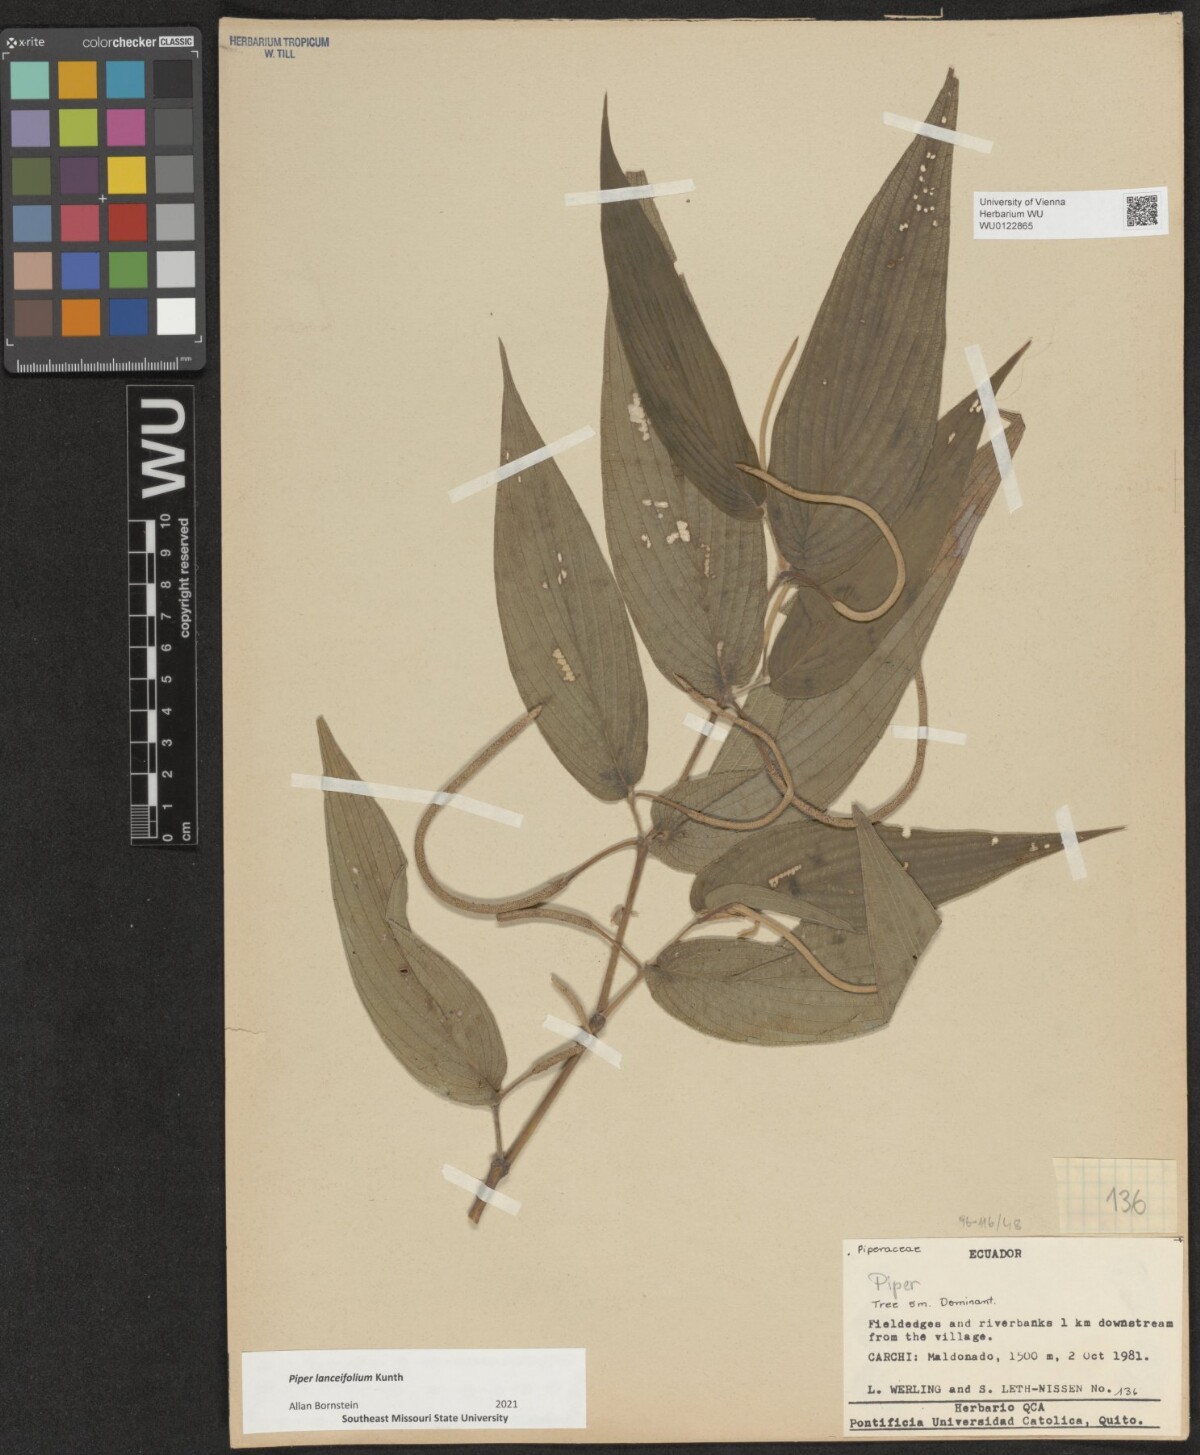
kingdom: Plantae
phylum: Tracheophyta
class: Magnoliopsida
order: Piperales
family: Piperaceae
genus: Piper
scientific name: Piper lanceaefolium
